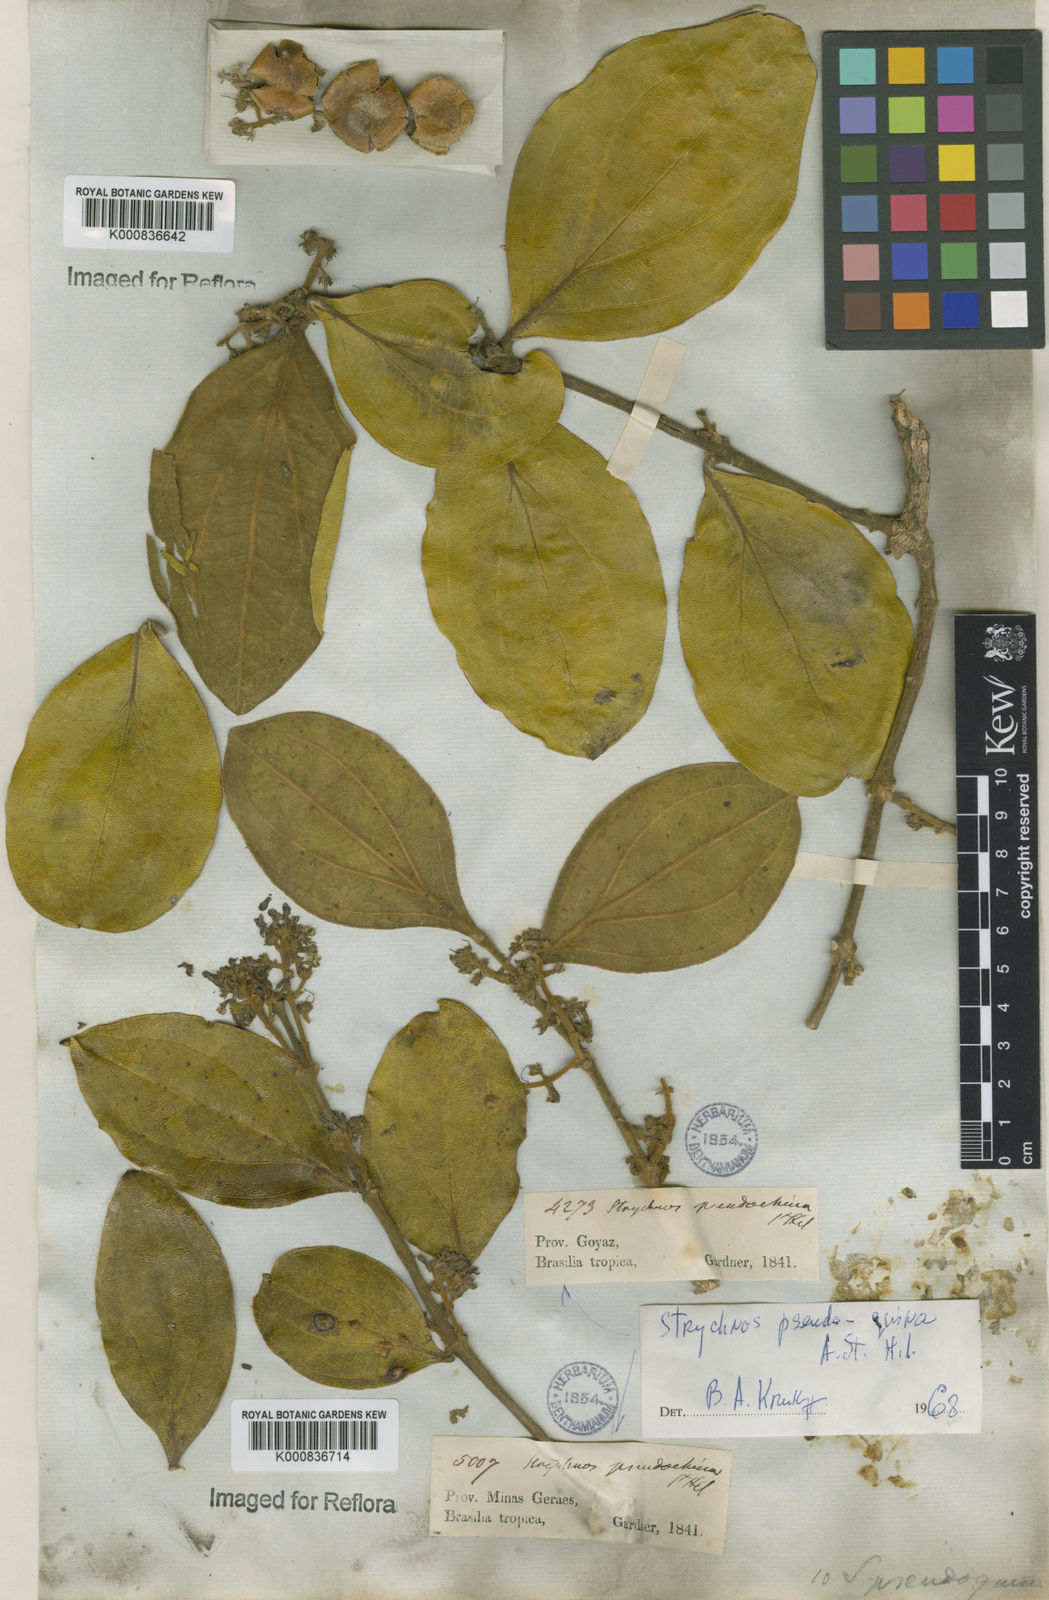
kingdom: Plantae
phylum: Tracheophyta
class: Magnoliopsida
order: Gentianales
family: Loganiaceae
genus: Strychnos
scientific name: Strychnos pseudoquina
